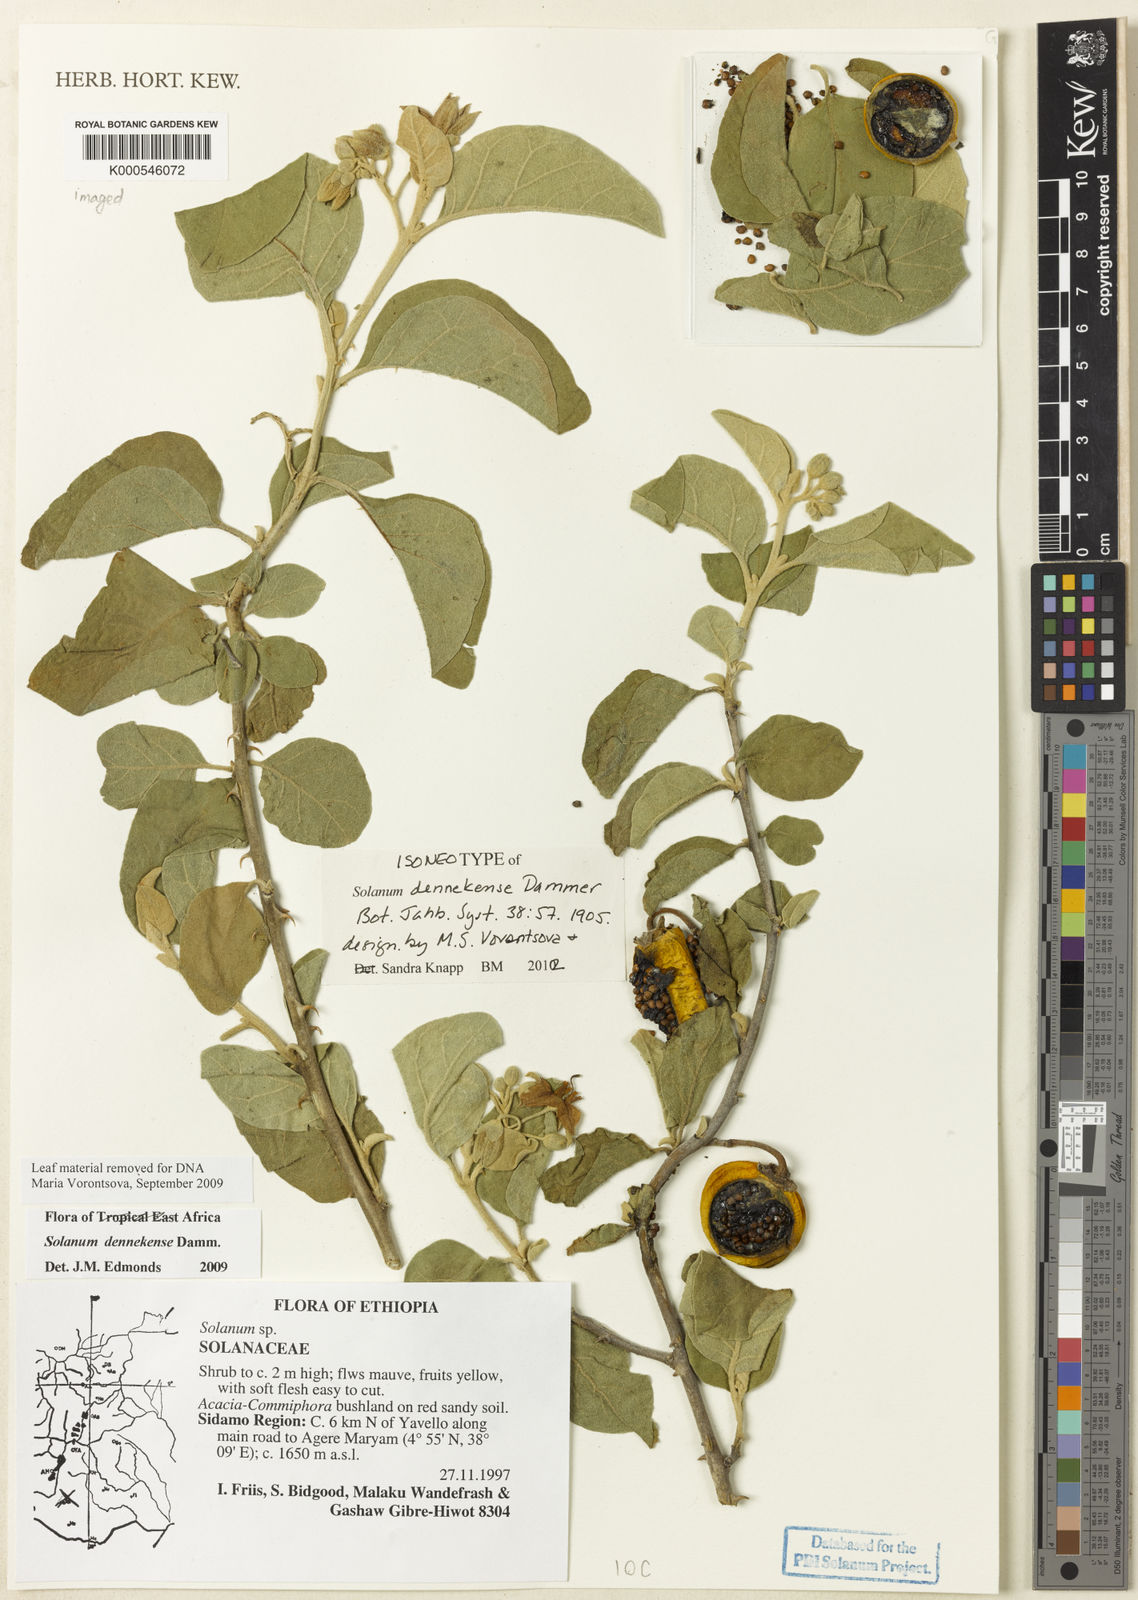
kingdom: Plantae
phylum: Tracheophyta
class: Magnoliopsida
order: Solanales
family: Solanaceae
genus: Solanum
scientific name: Solanum dennekense
